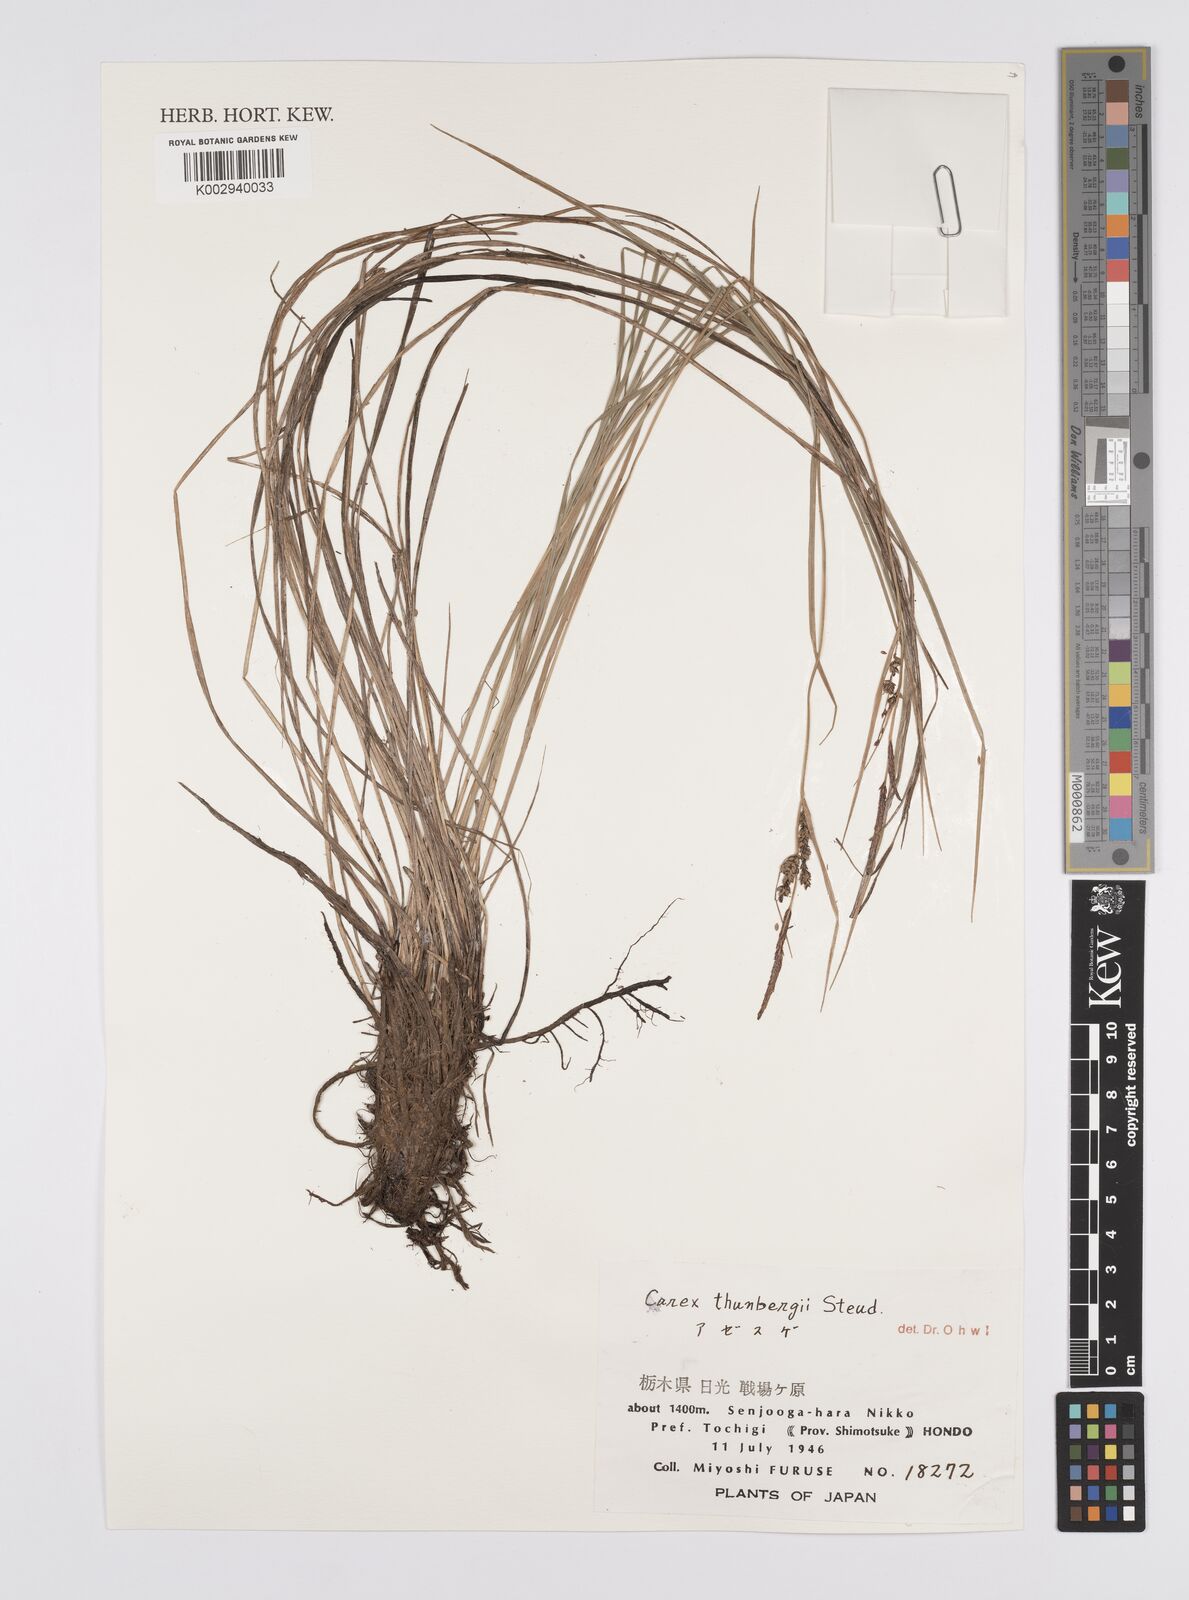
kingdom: Plantae
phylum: Tracheophyta
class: Liliopsida
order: Poales
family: Cyperaceae
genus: Carex
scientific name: Carex thunbergii
